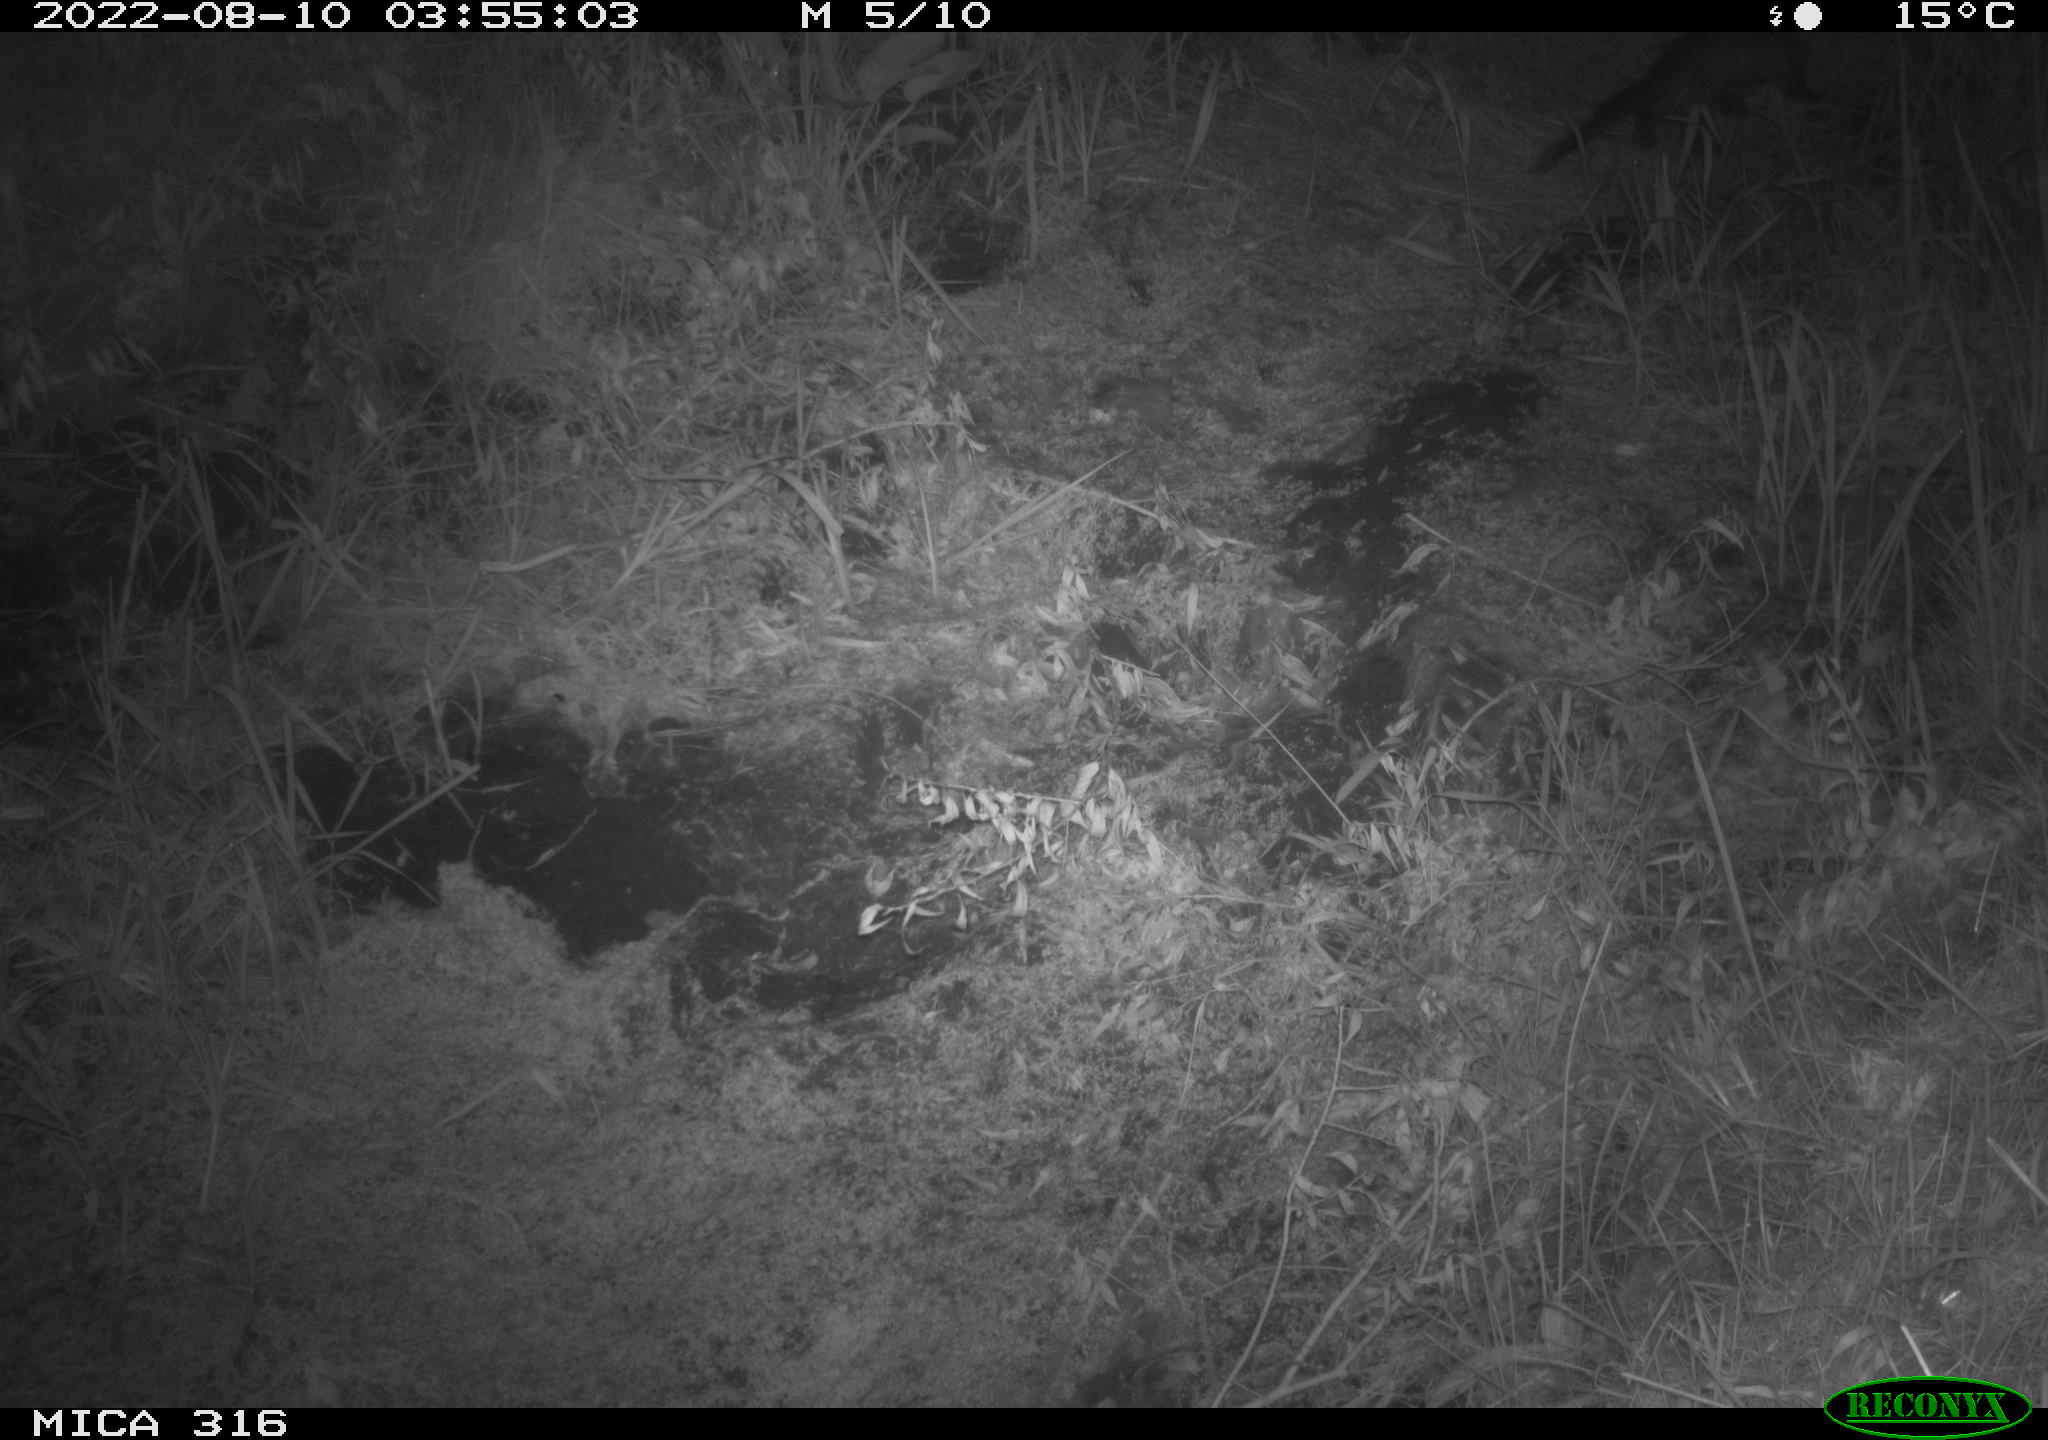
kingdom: Animalia
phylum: Chordata
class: Mammalia
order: Carnivora
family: Mustelidae
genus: Martes
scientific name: Martes martes
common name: European pine marten
